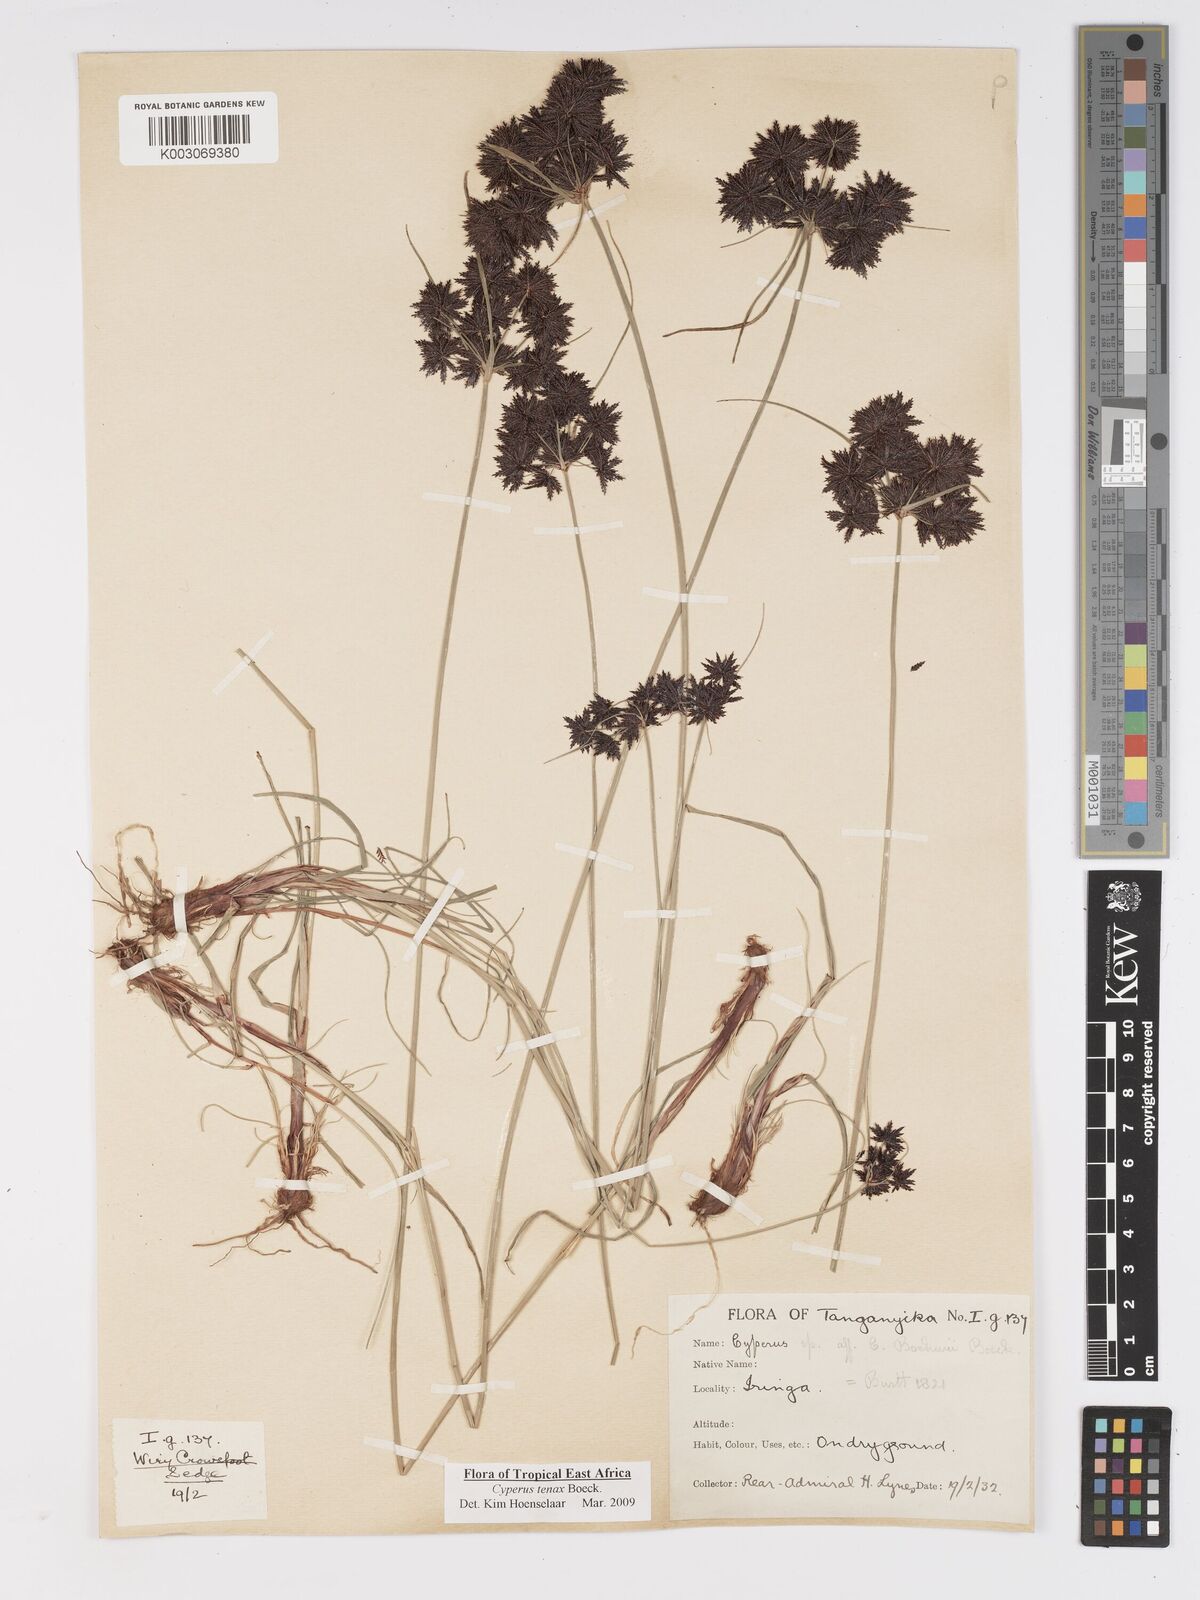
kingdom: Plantae
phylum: Tracheophyta
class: Liliopsida
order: Poales
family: Cyperaceae
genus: Cyperus
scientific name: Cyperus tenax
